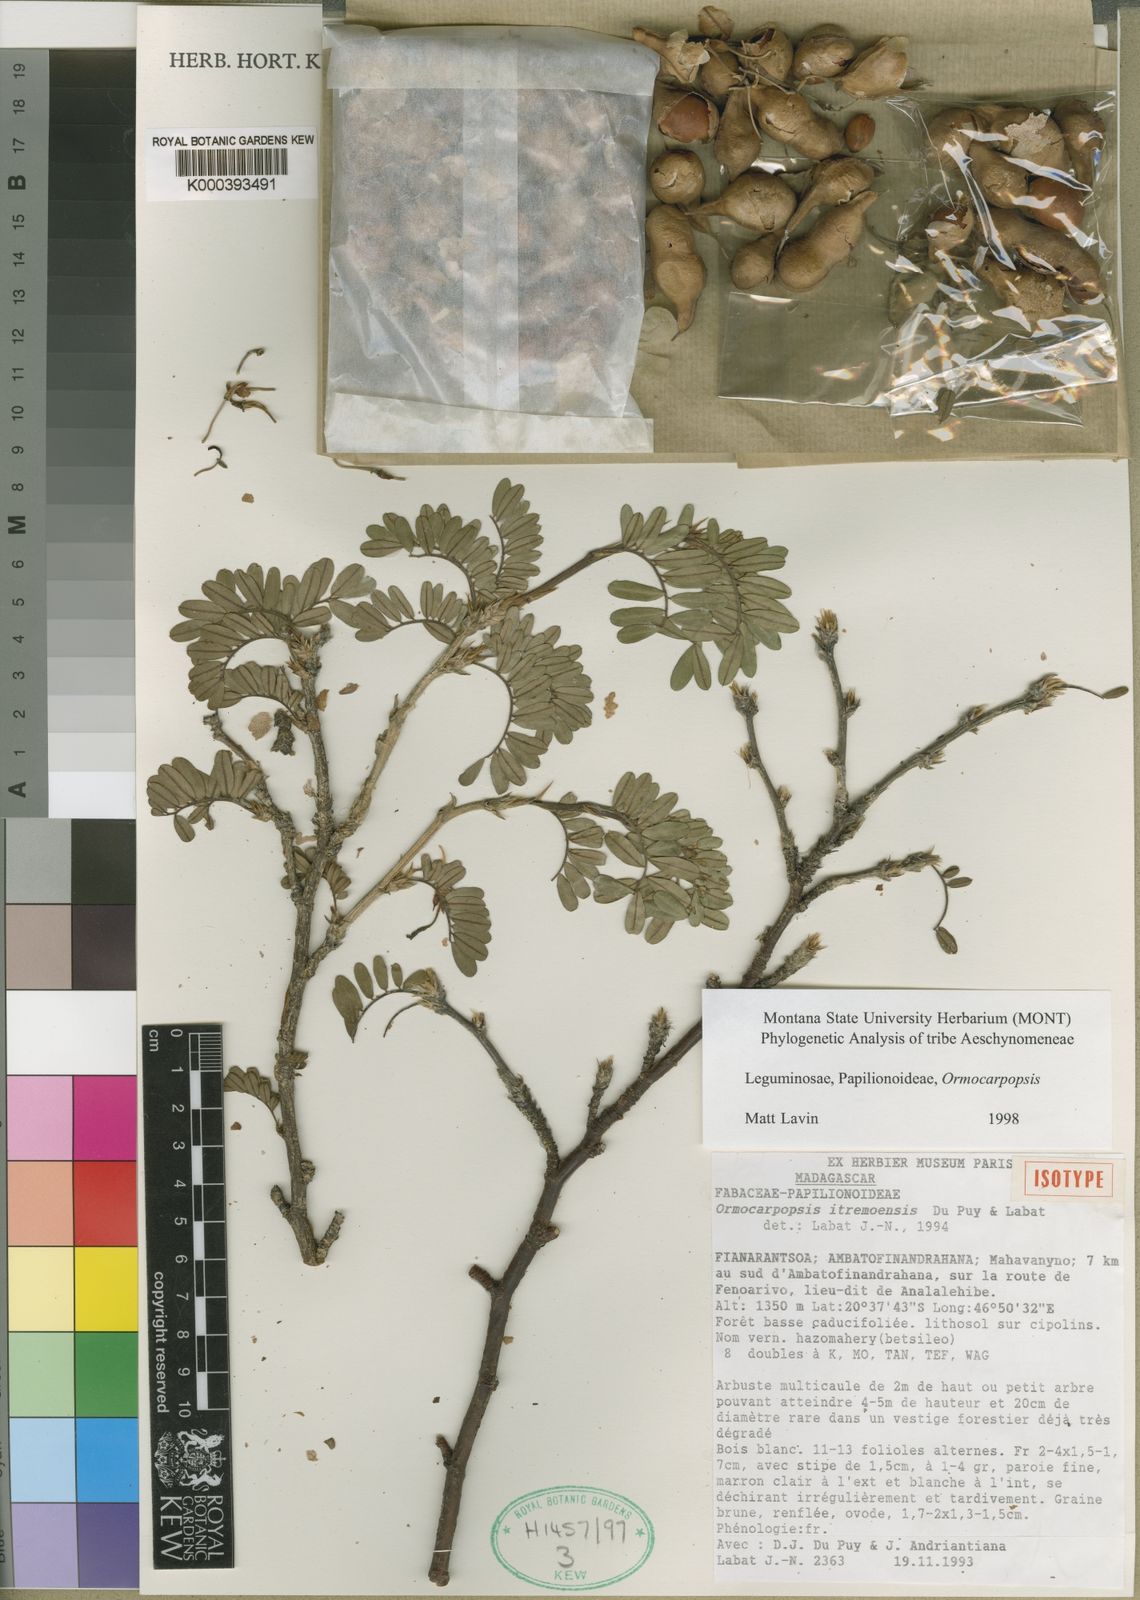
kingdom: Plantae
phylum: Tracheophyta
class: Magnoliopsida
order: Fabales
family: Fabaceae
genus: Ormocarpopsis
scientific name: Ormocarpopsis itremoensis
